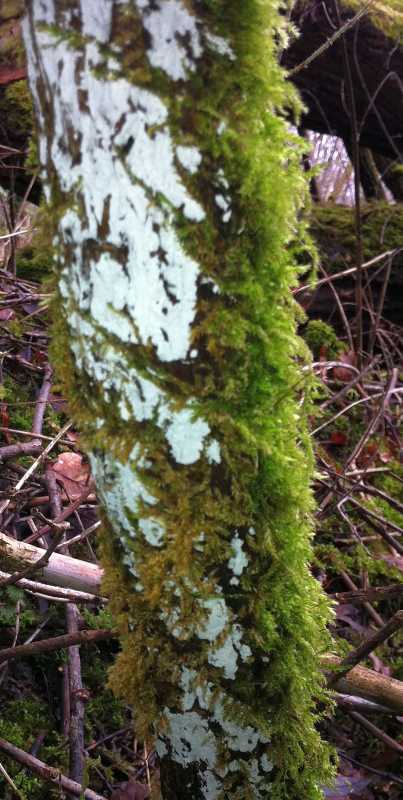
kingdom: Fungi
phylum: Basidiomycota
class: Agaricomycetes
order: Corticiales
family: Corticiaceae
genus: Lyomyces
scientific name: Lyomyces sambuci
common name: almindelig hyldehinde
